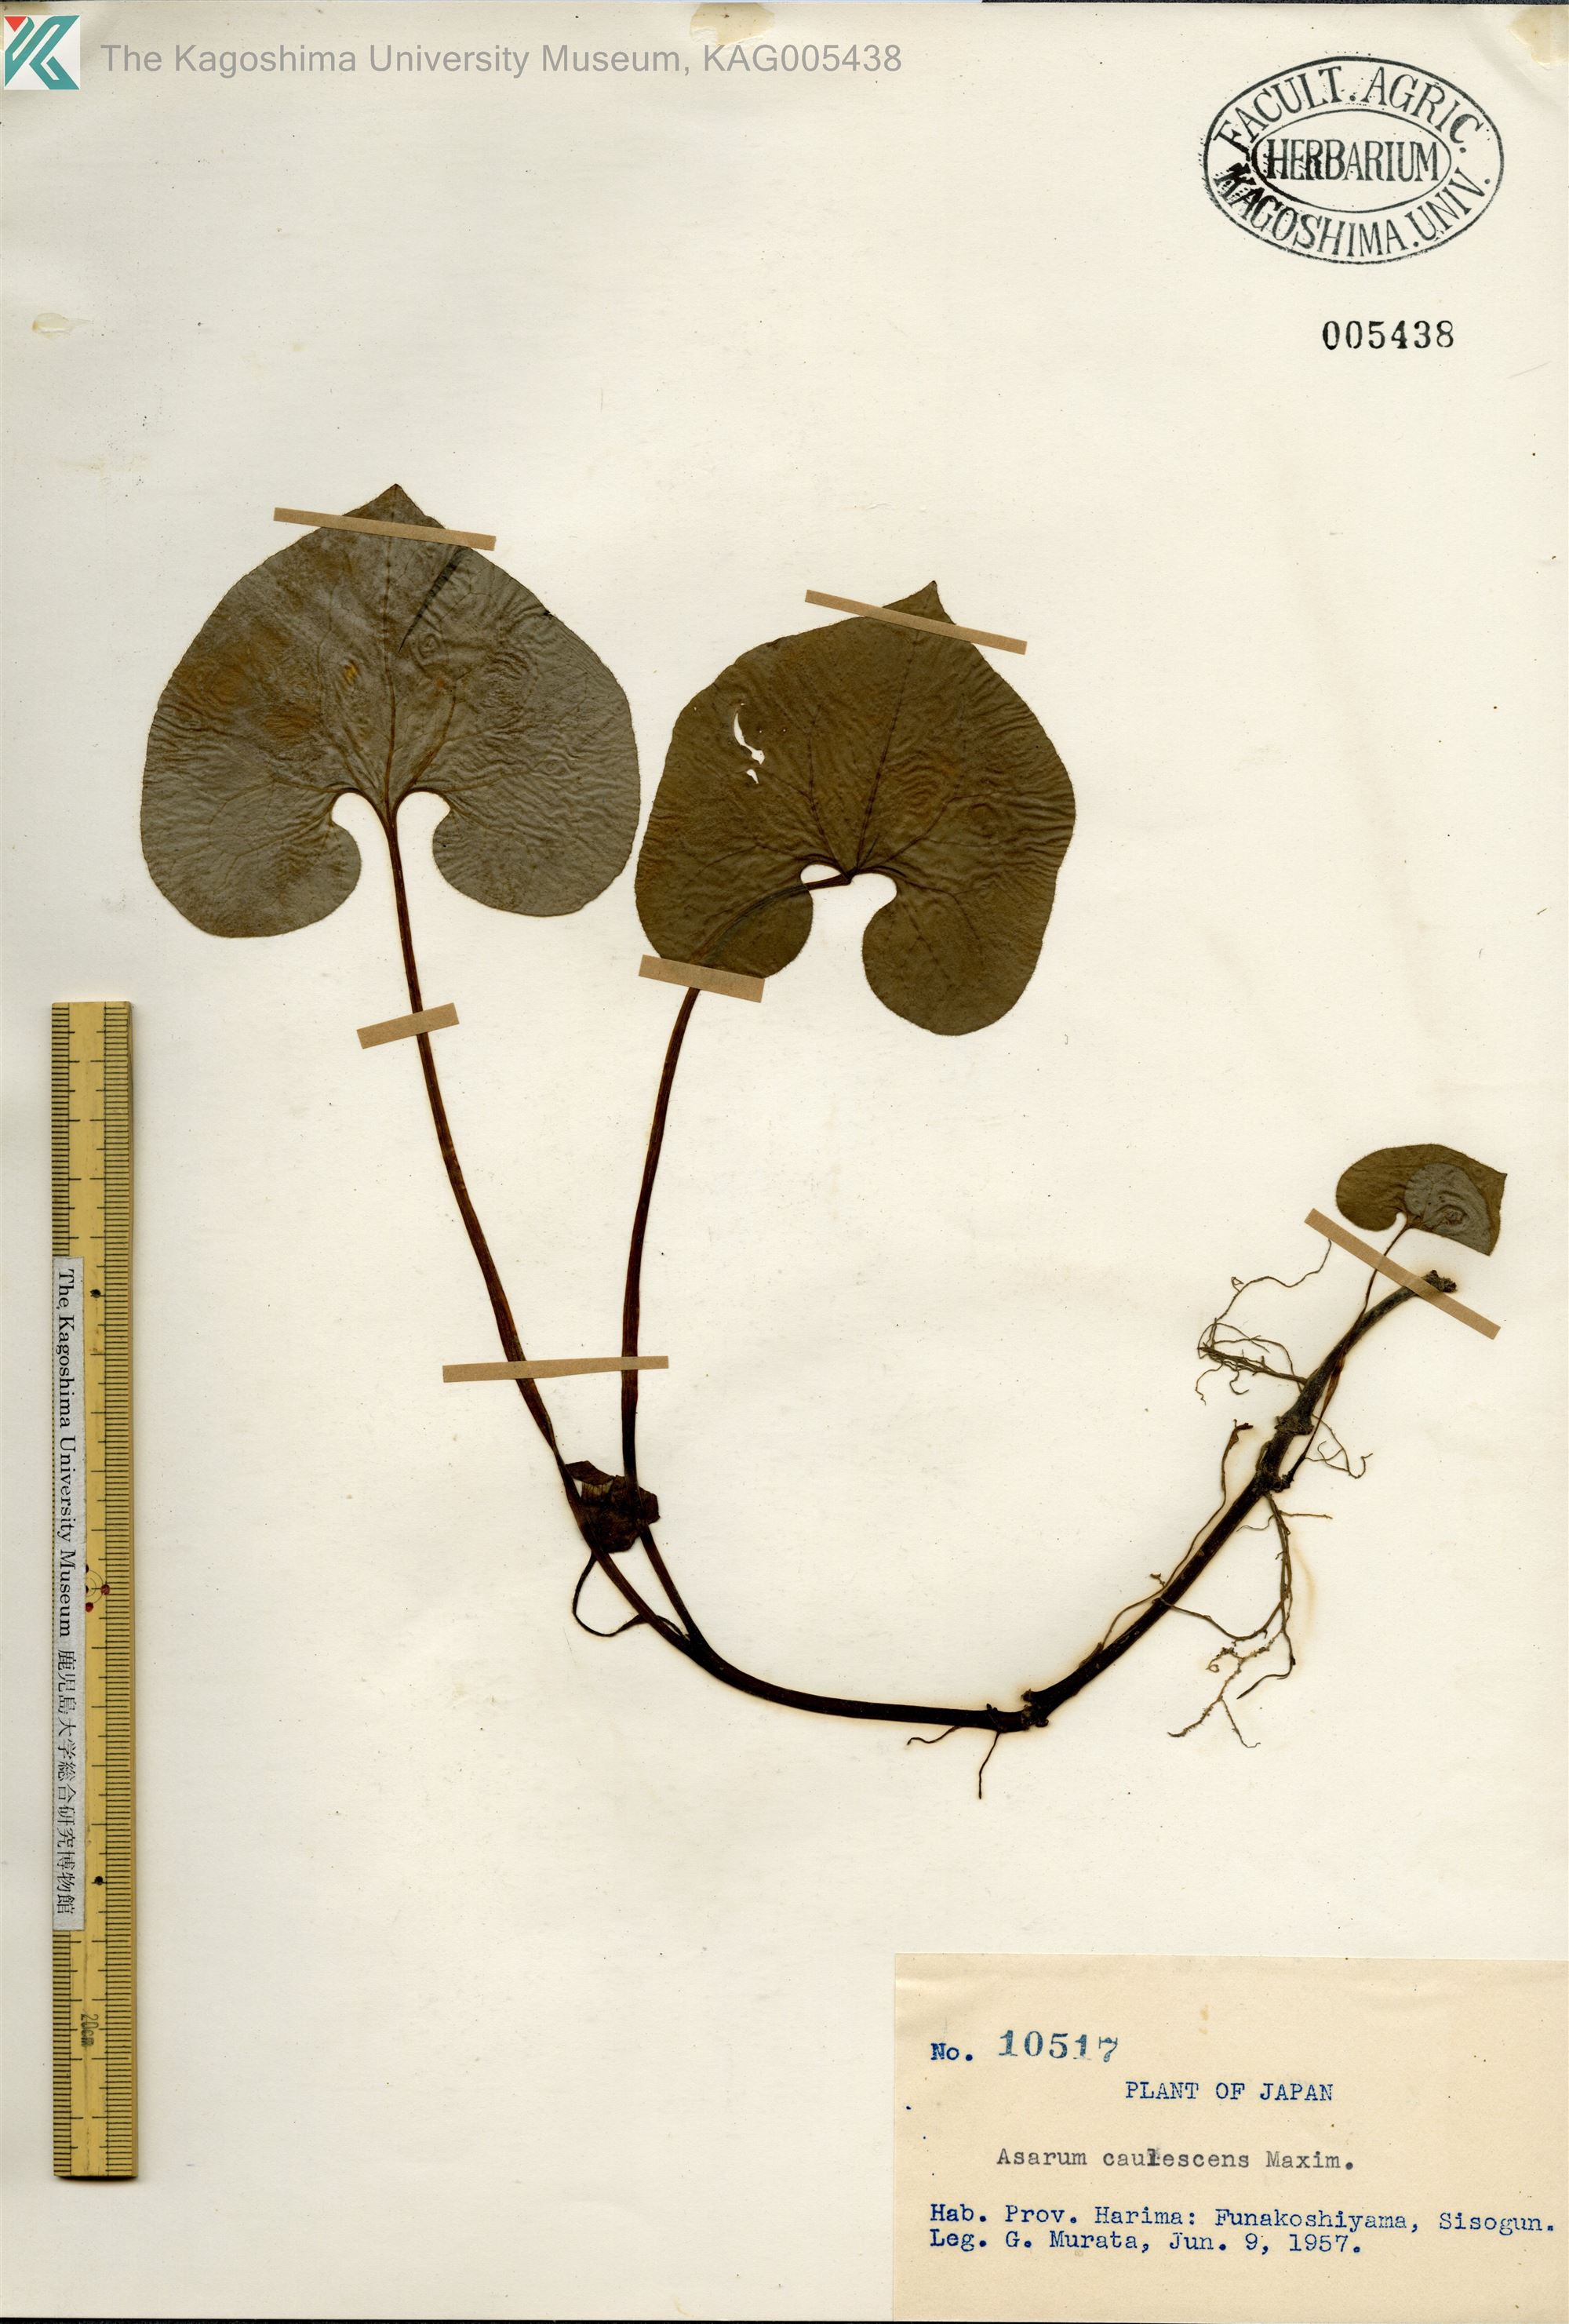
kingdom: Plantae
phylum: Tracheophyta
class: Magnoliopsida
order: Piperales
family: Aristolochiaceae
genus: Asarum
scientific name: Asarum caulescens
